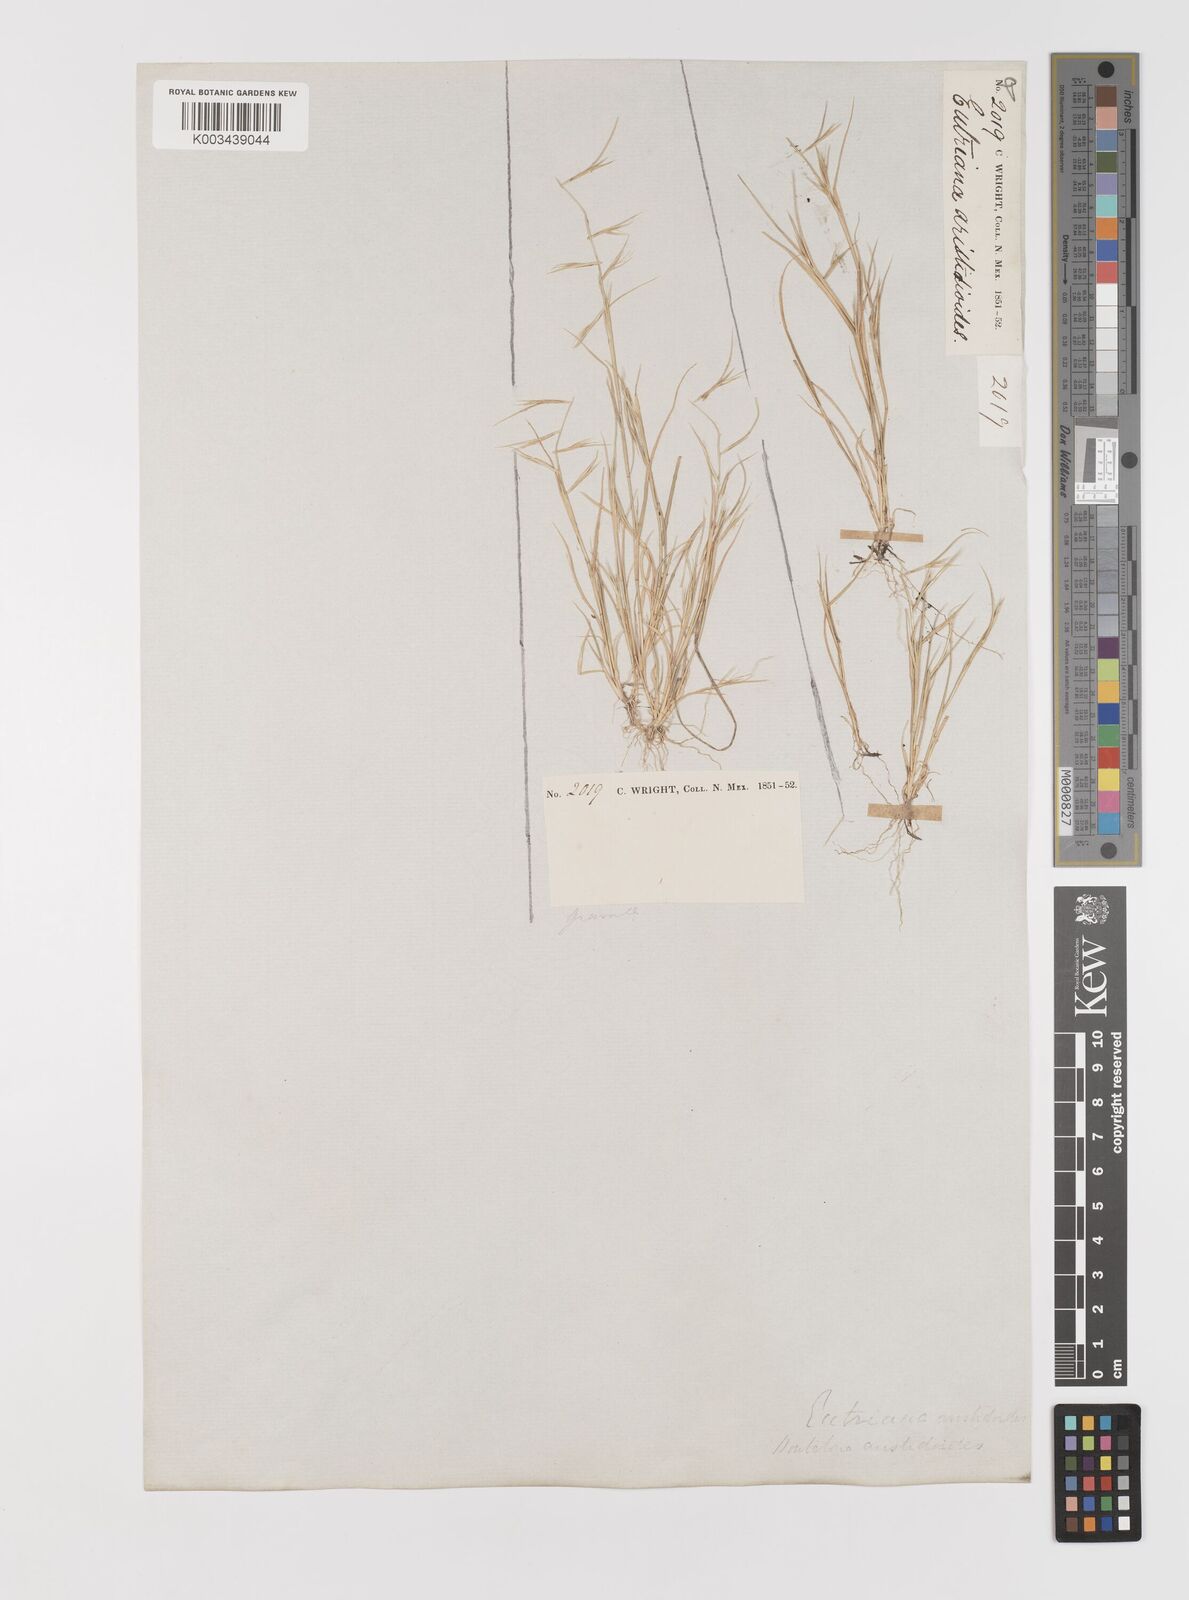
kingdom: Plantae
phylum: Tracheophyta
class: Liliopsida
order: Poales
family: Poaceae
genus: Bouteloua
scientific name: Bouteloua aristidoides
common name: Needle grama
